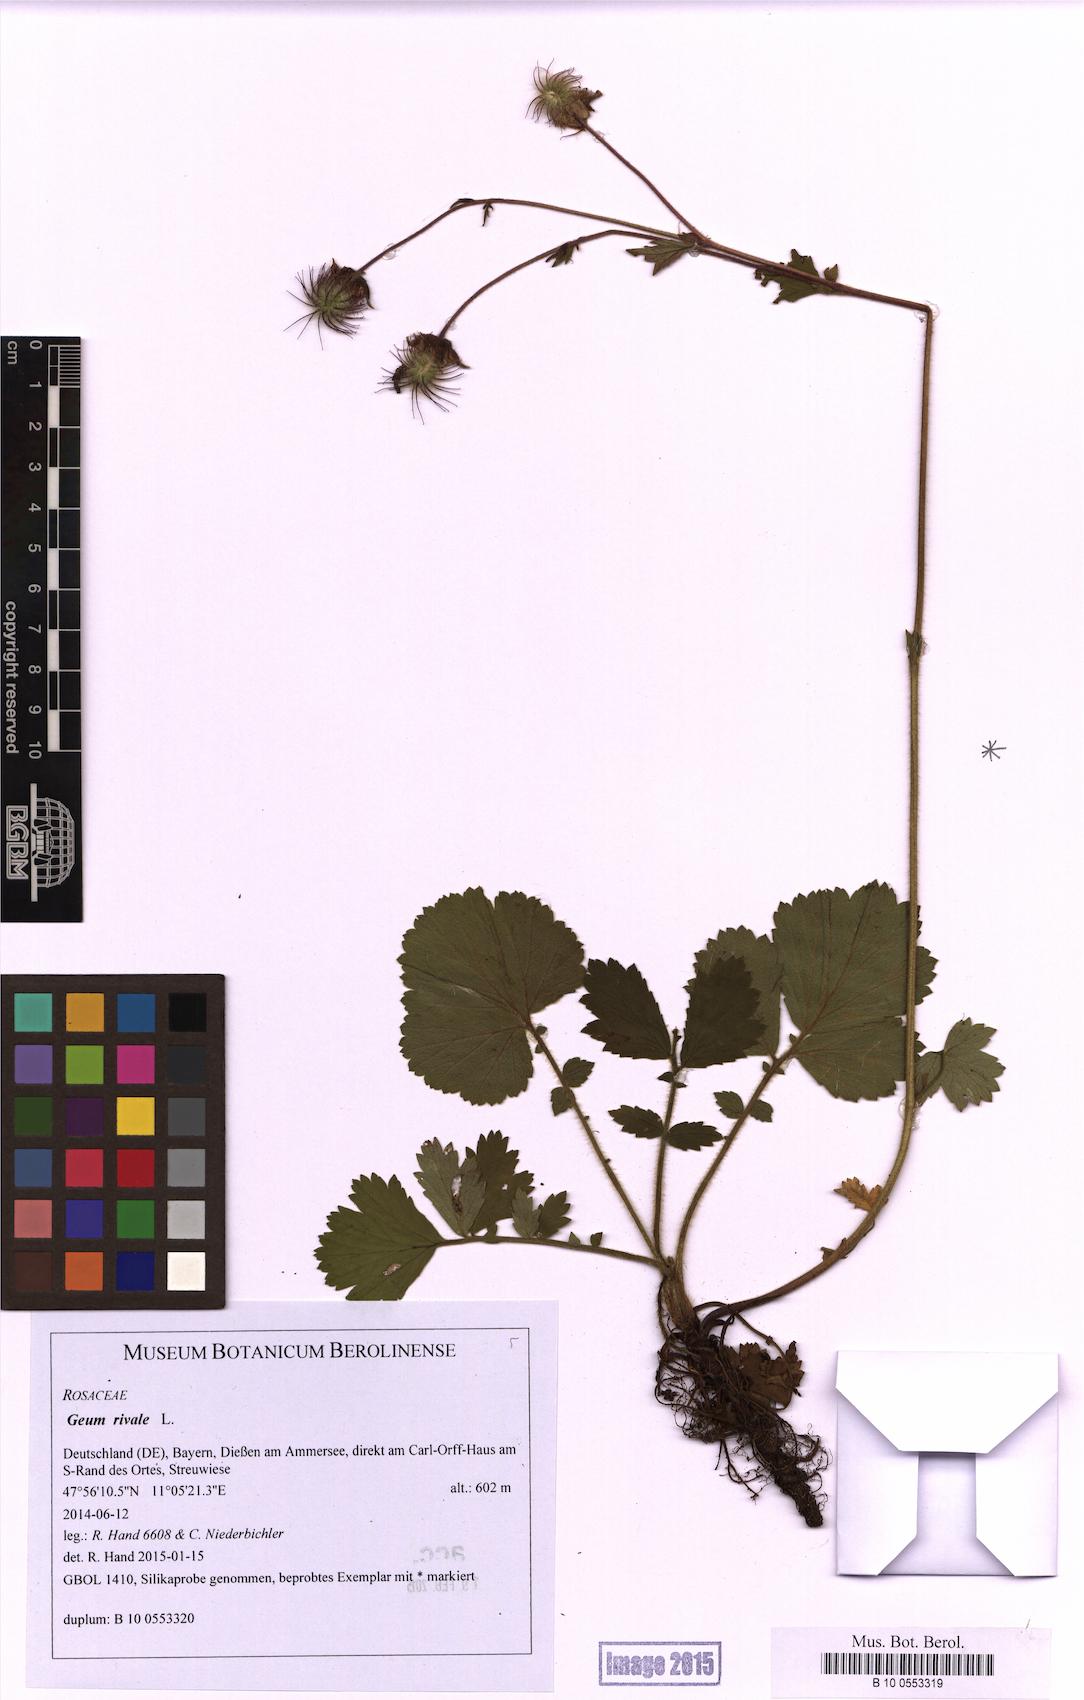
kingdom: Plantae
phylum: Tracheophyta
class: Magnoliopsida
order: Rosales
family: Rosaceae
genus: Geum
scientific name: Geum rivale
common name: Water avens
